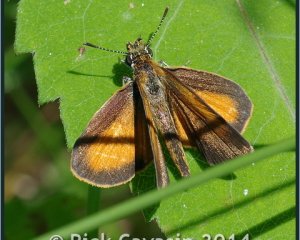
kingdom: Animalia
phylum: Arthropoda
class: Insecta
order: Lepidoptera
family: Hesperiidae
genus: Ancyloxypha
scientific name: Ancyloxypha numitor
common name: Least Skipper
